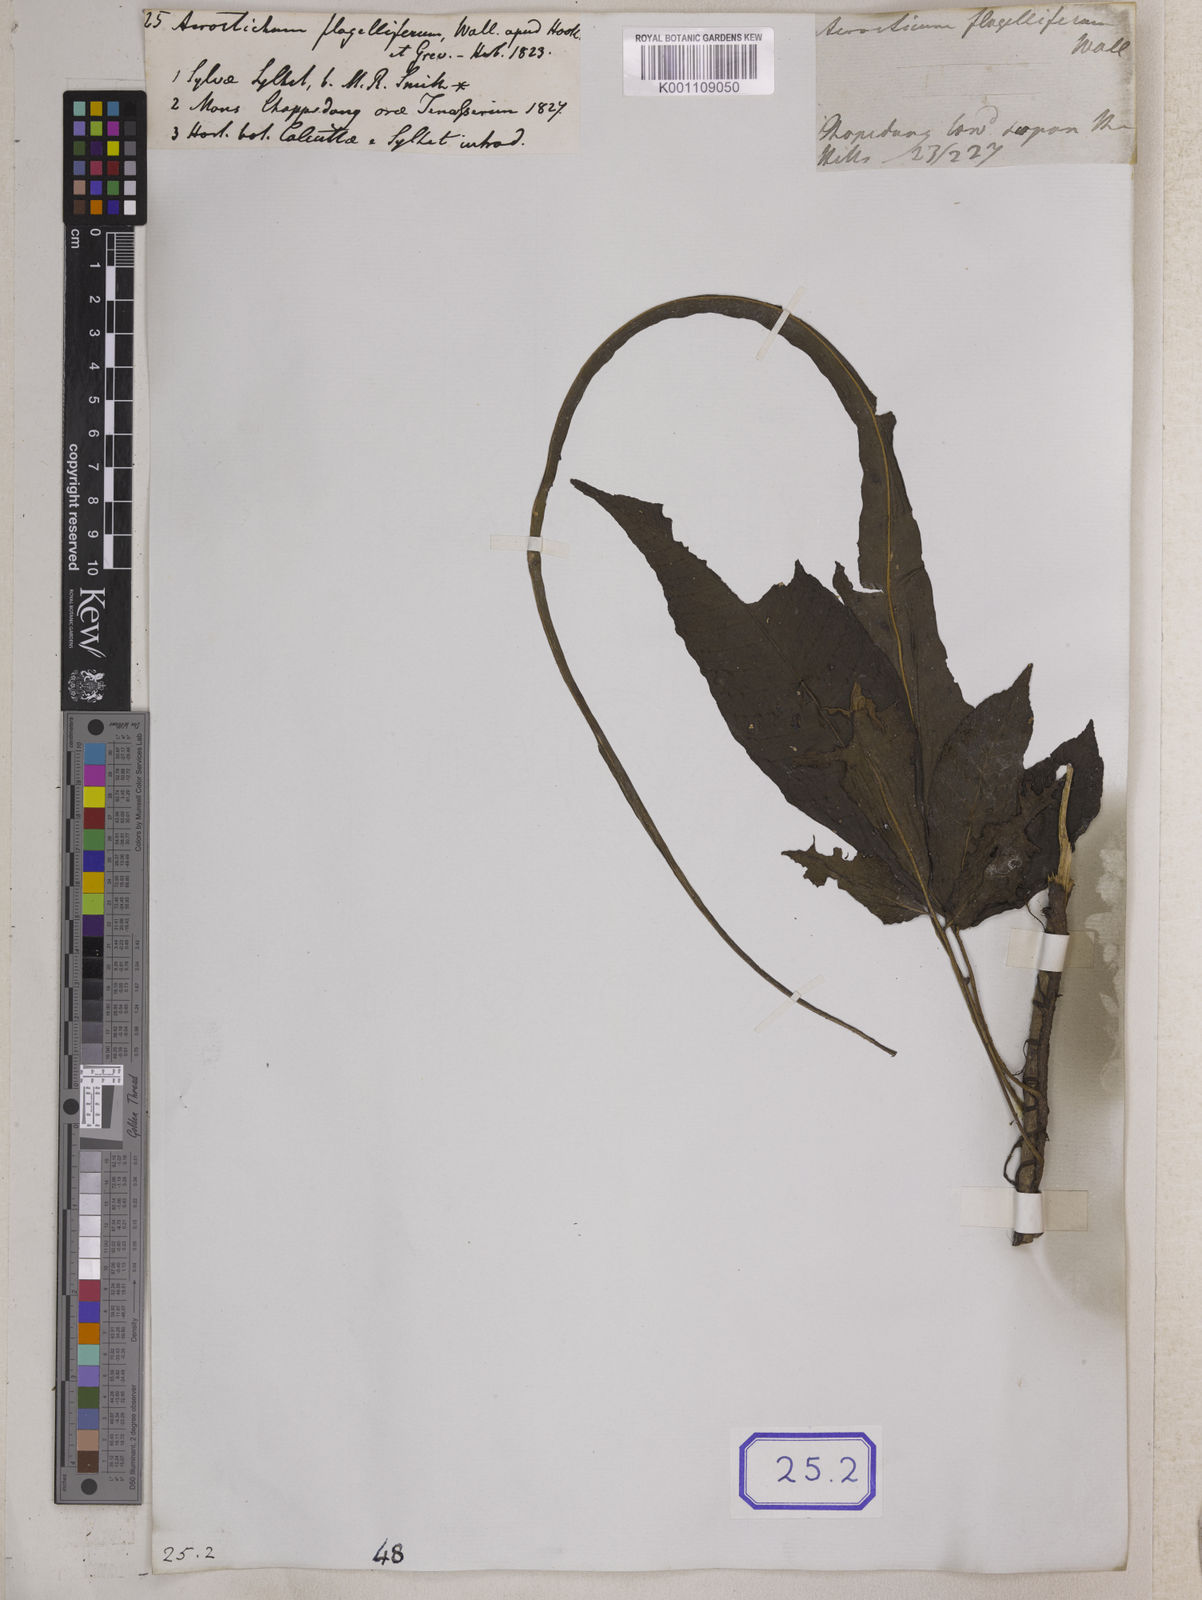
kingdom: Plantae
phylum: Tracheophyta
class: Polypodiopsida
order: Polypodiales
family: Dryopteridaceae
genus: Bolbitis
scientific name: Bolbitis heteroclita
